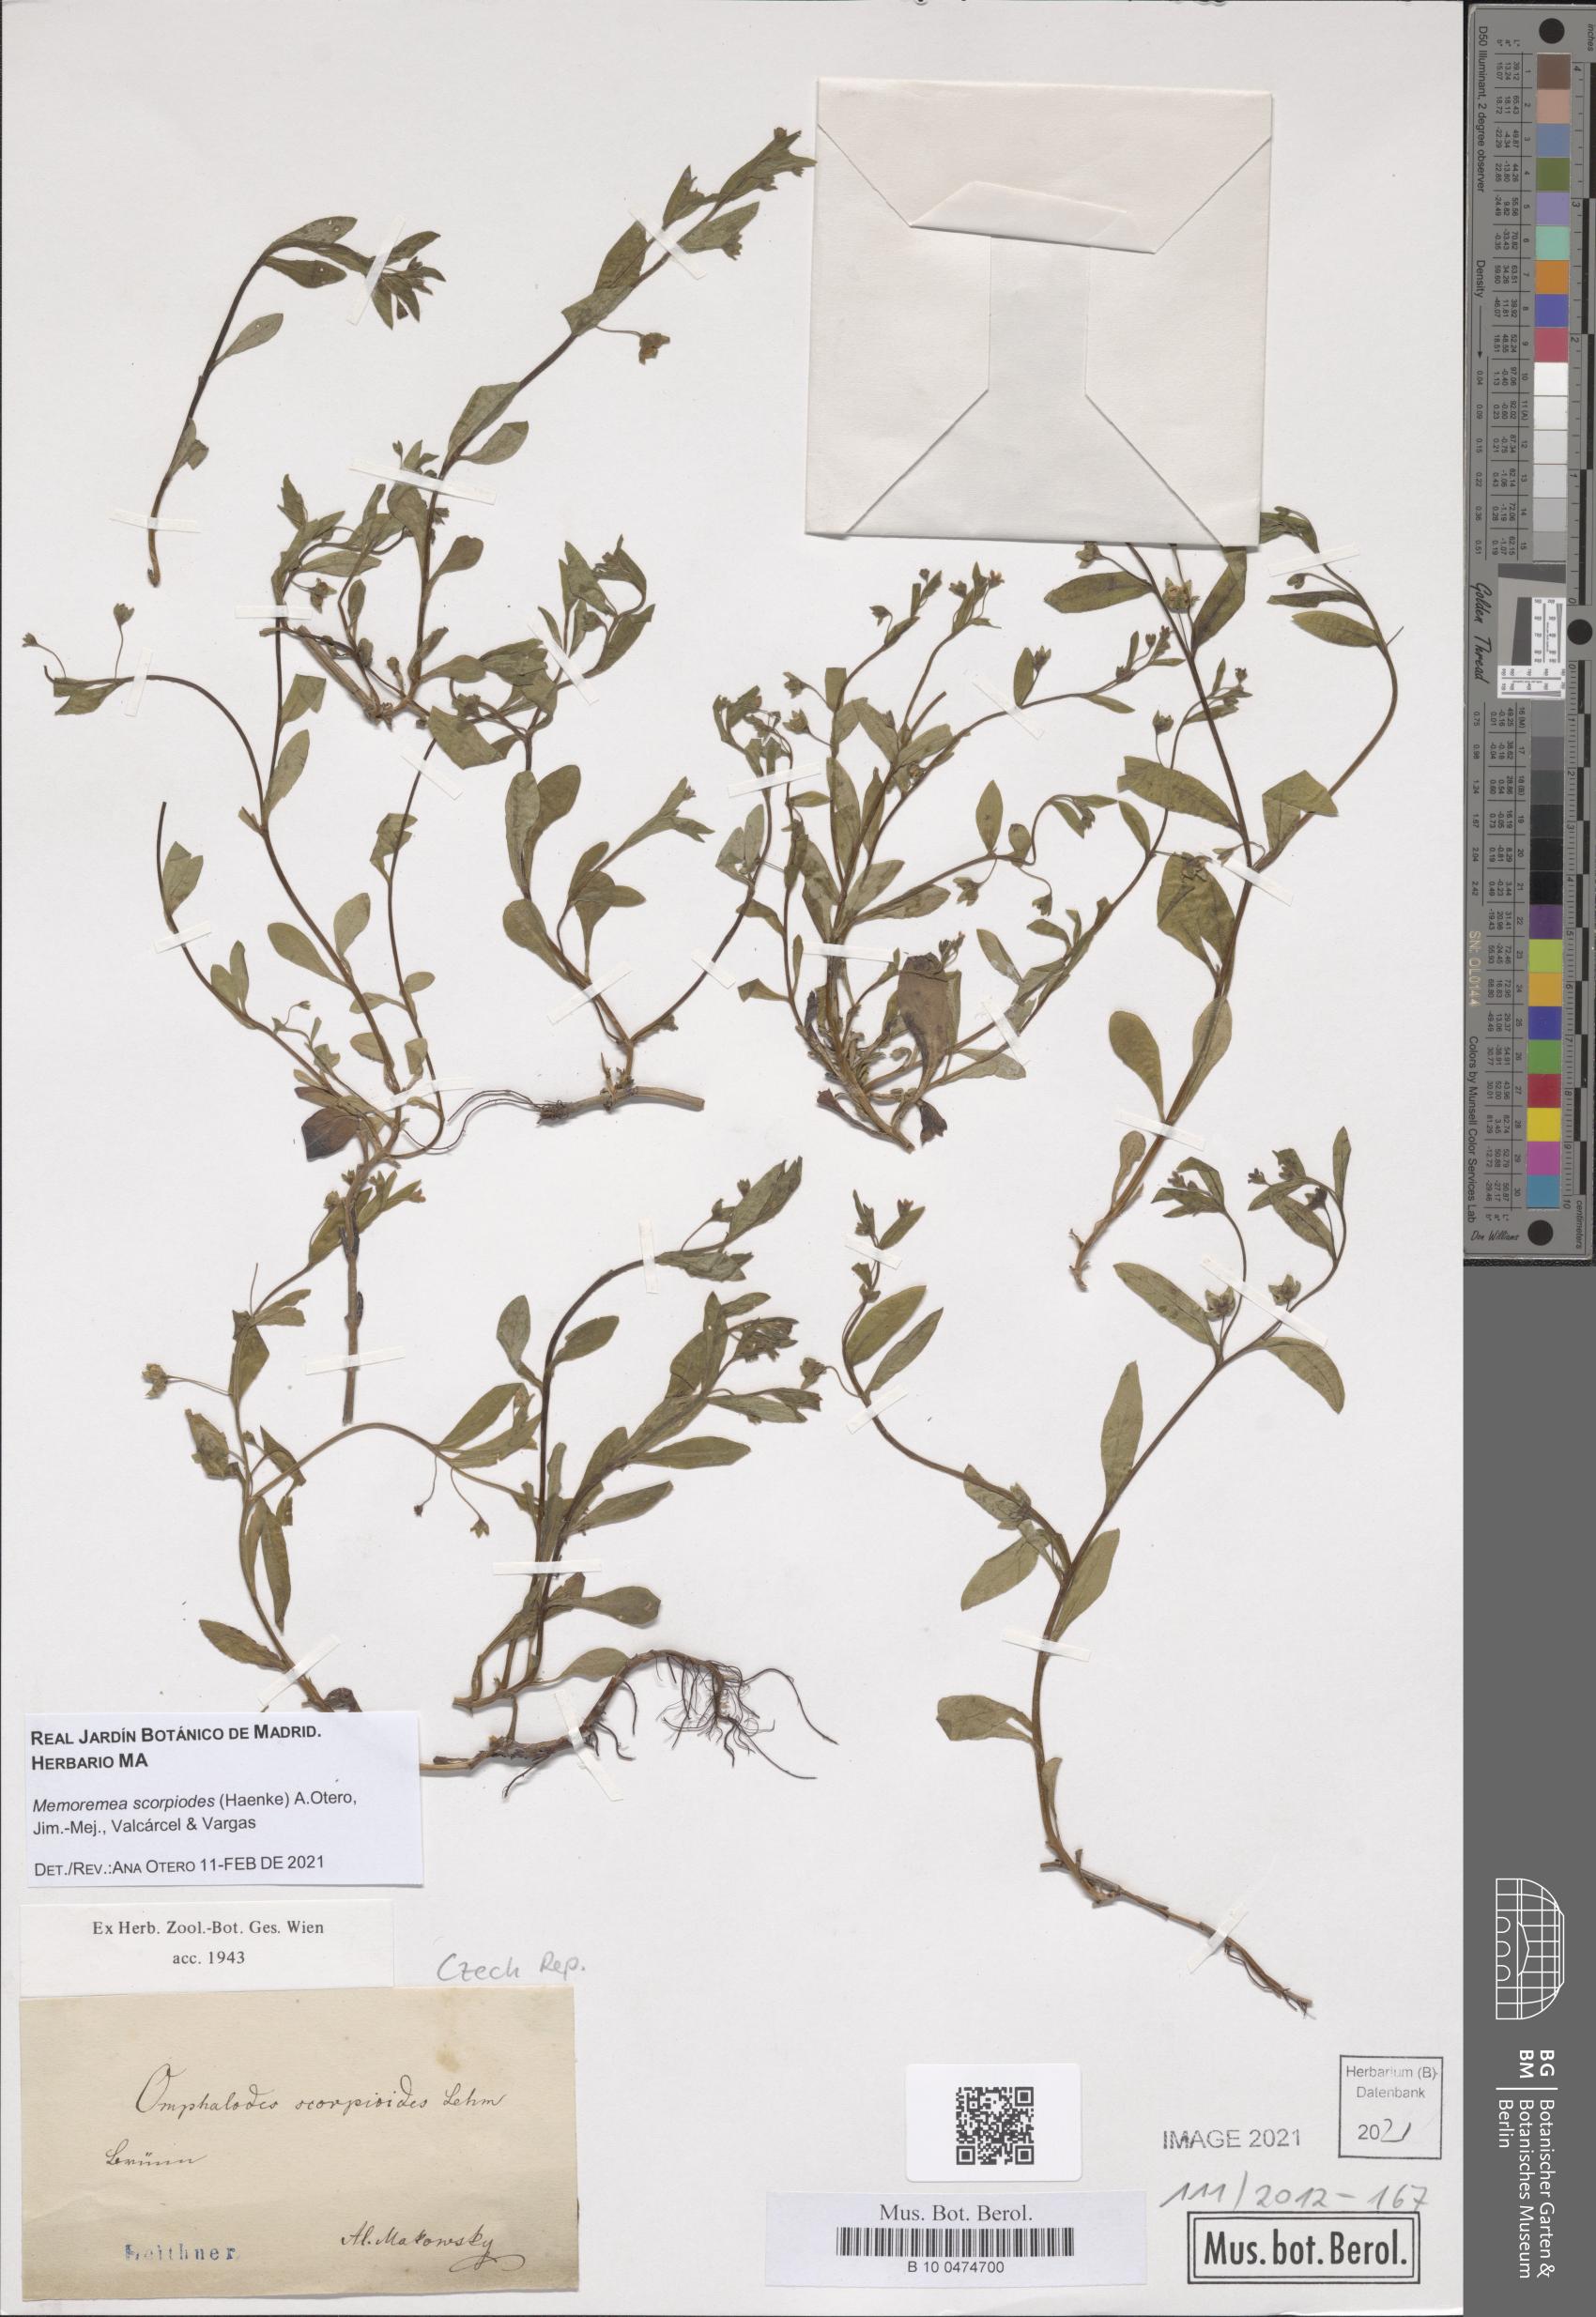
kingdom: Plantae
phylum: Tracheophyta
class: Magnoliopsida
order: Boraginales
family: Boraginaceae
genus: Memoremea
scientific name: Memoremea scorpioides
